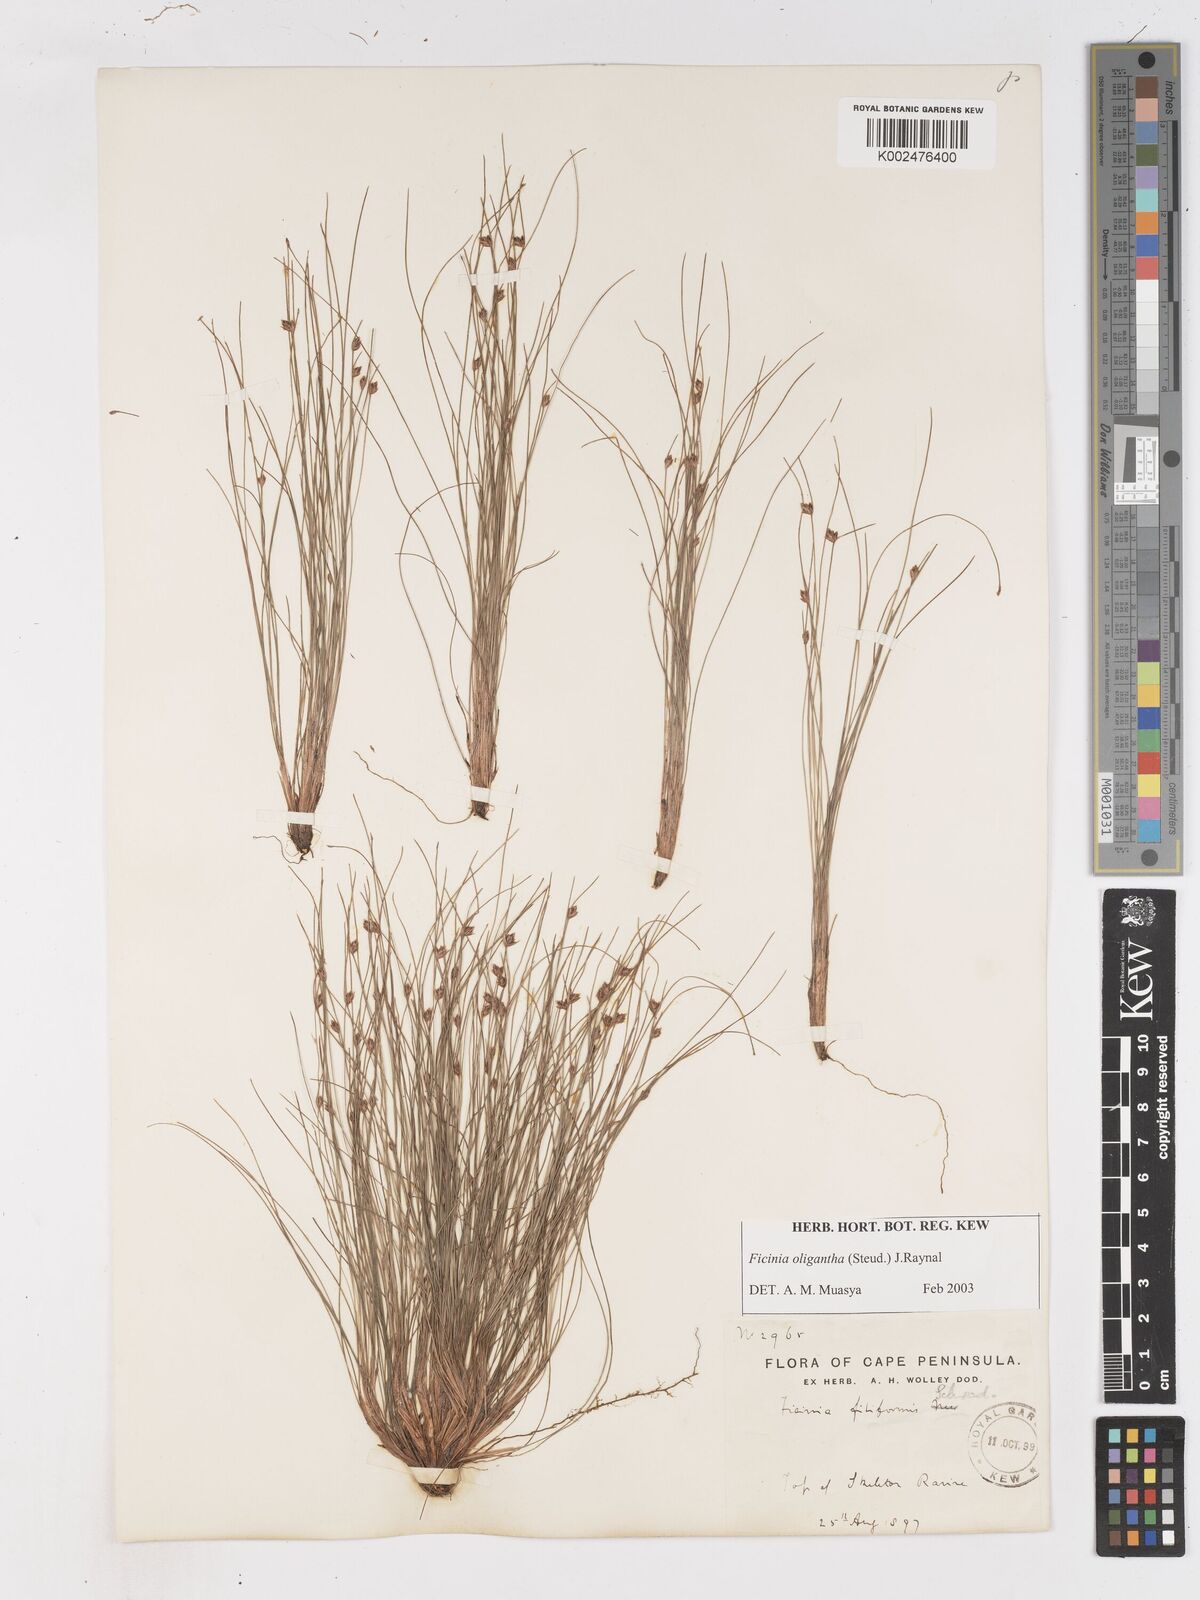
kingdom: Plantae
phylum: Tracheophyta
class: Liliopsida
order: Poales
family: Cyperaceae
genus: Ficinia
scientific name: Ficinia oligantha
